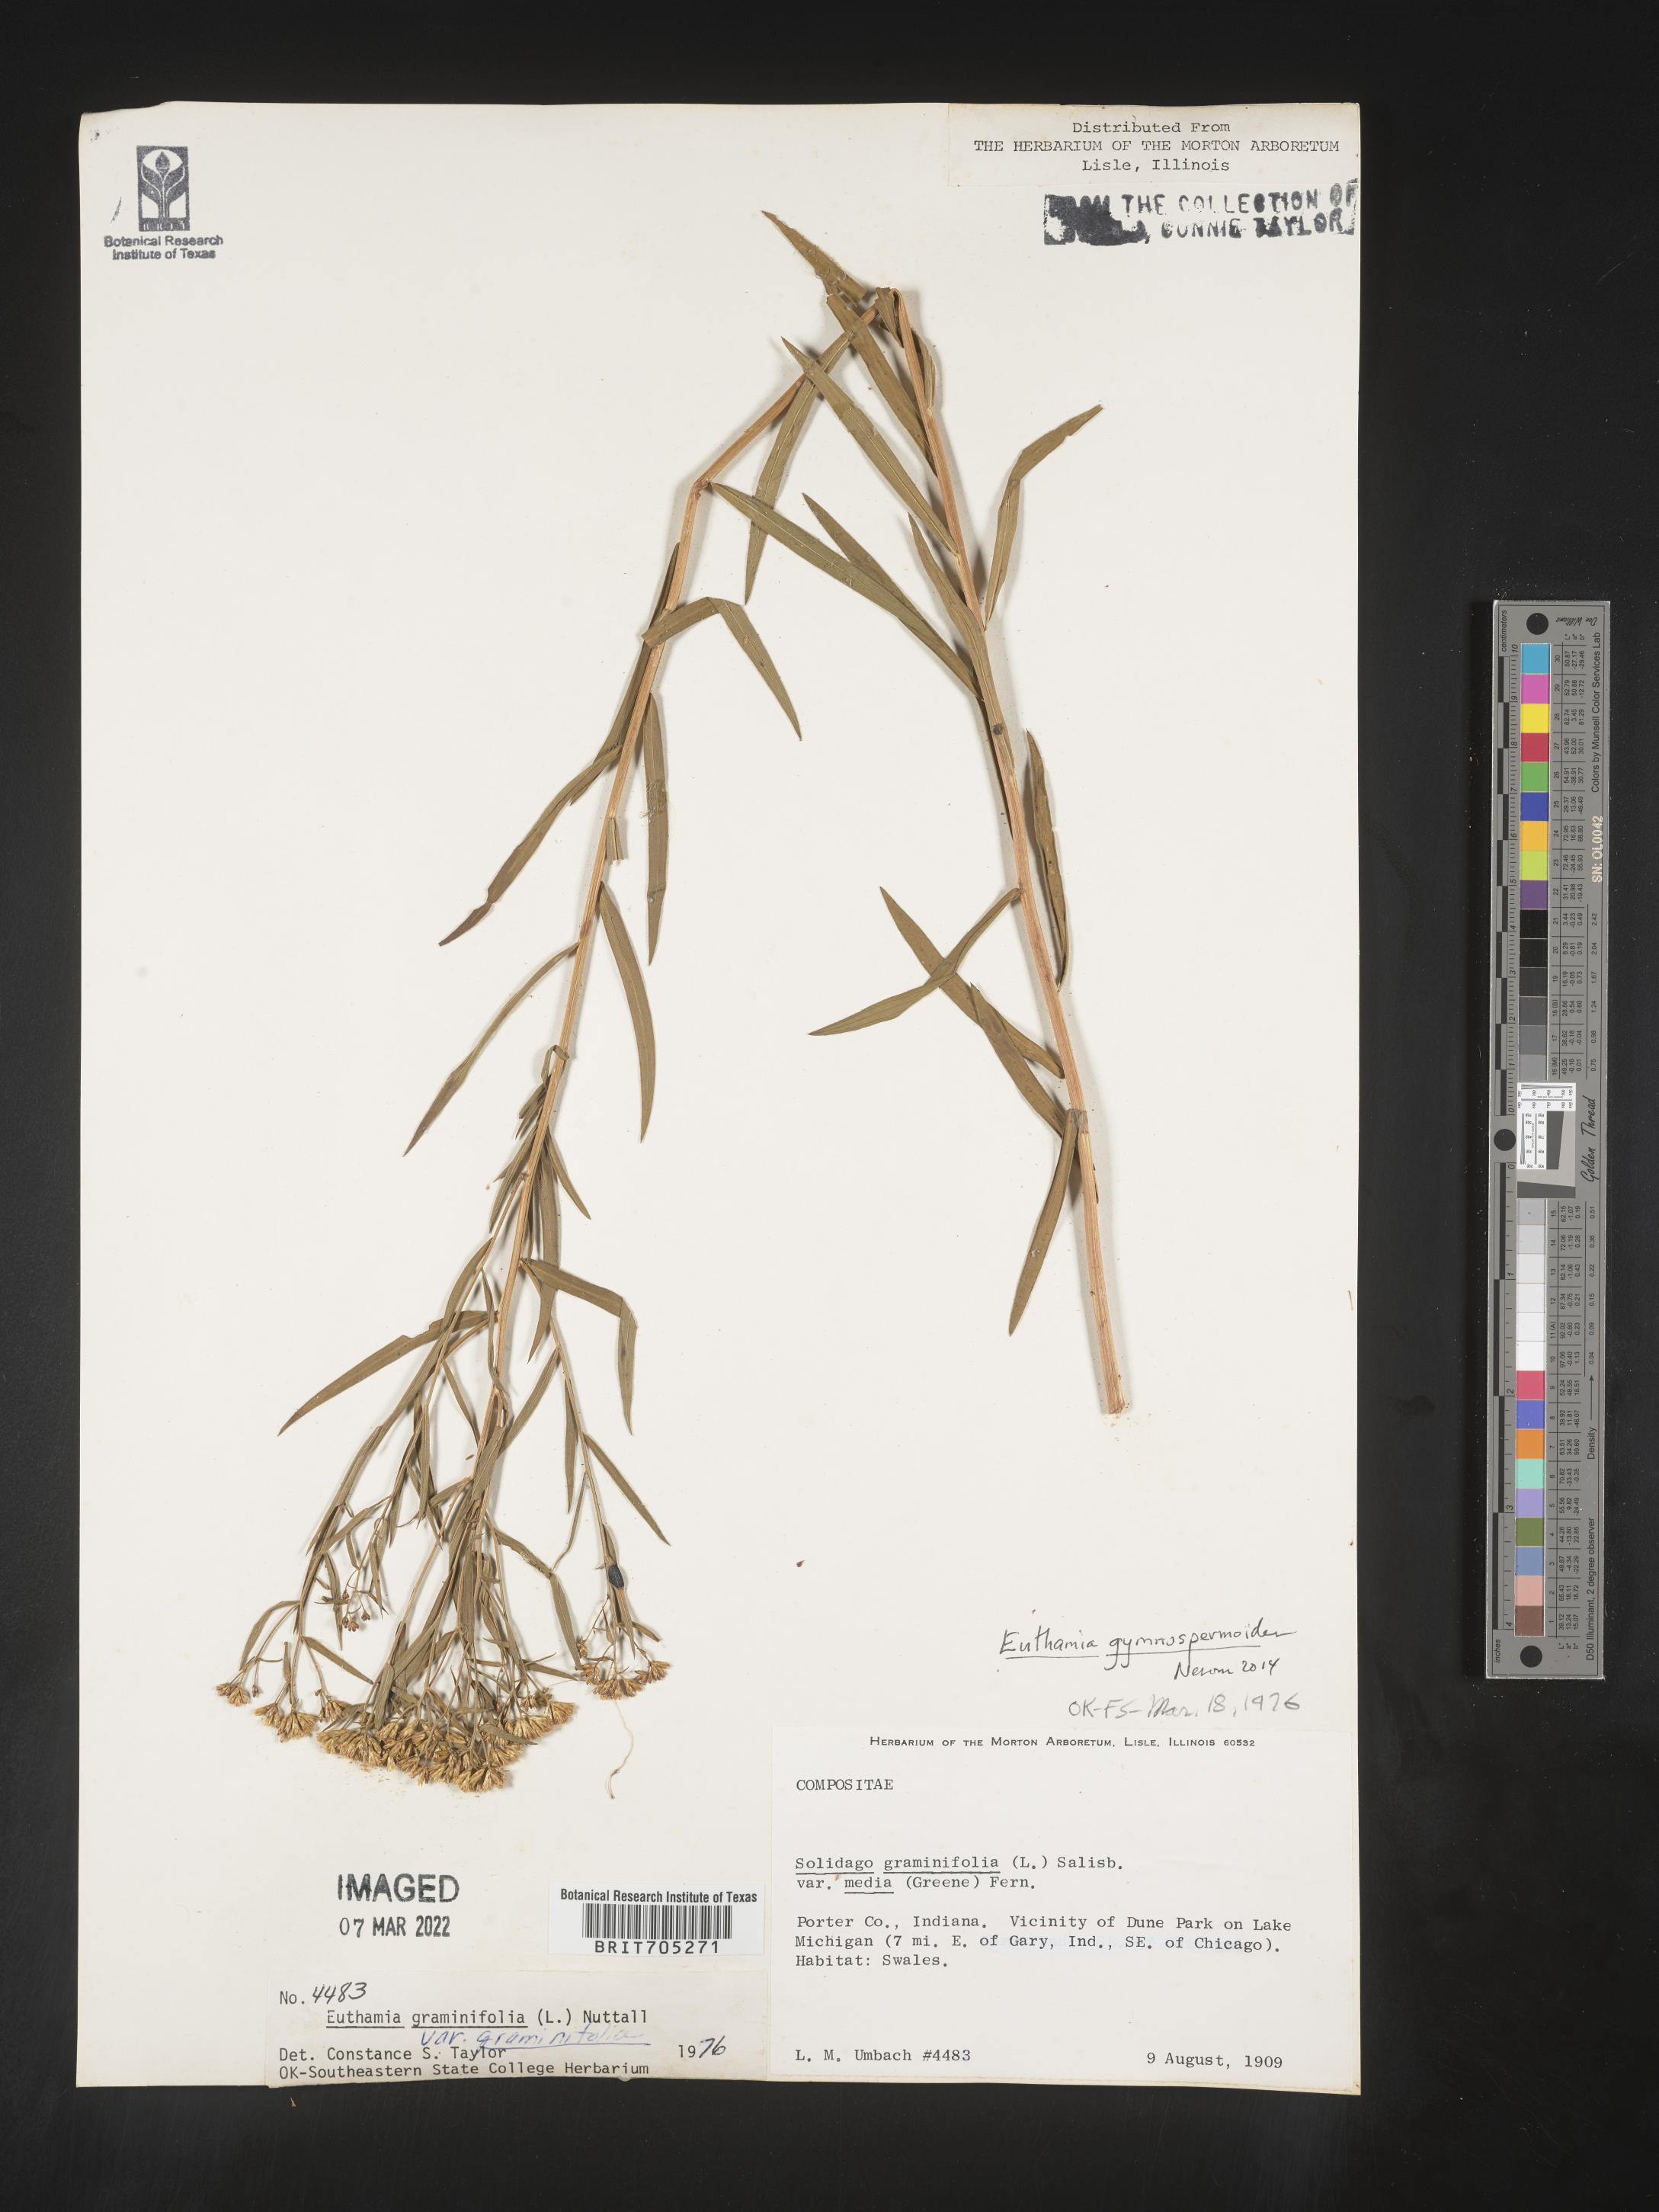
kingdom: Plantae
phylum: Tracheophyta
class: Magnoliopsida
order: Asterales
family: Asteraceae
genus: Euthamia
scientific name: Euthamia gymnospermoides
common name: Great plains goldentop
